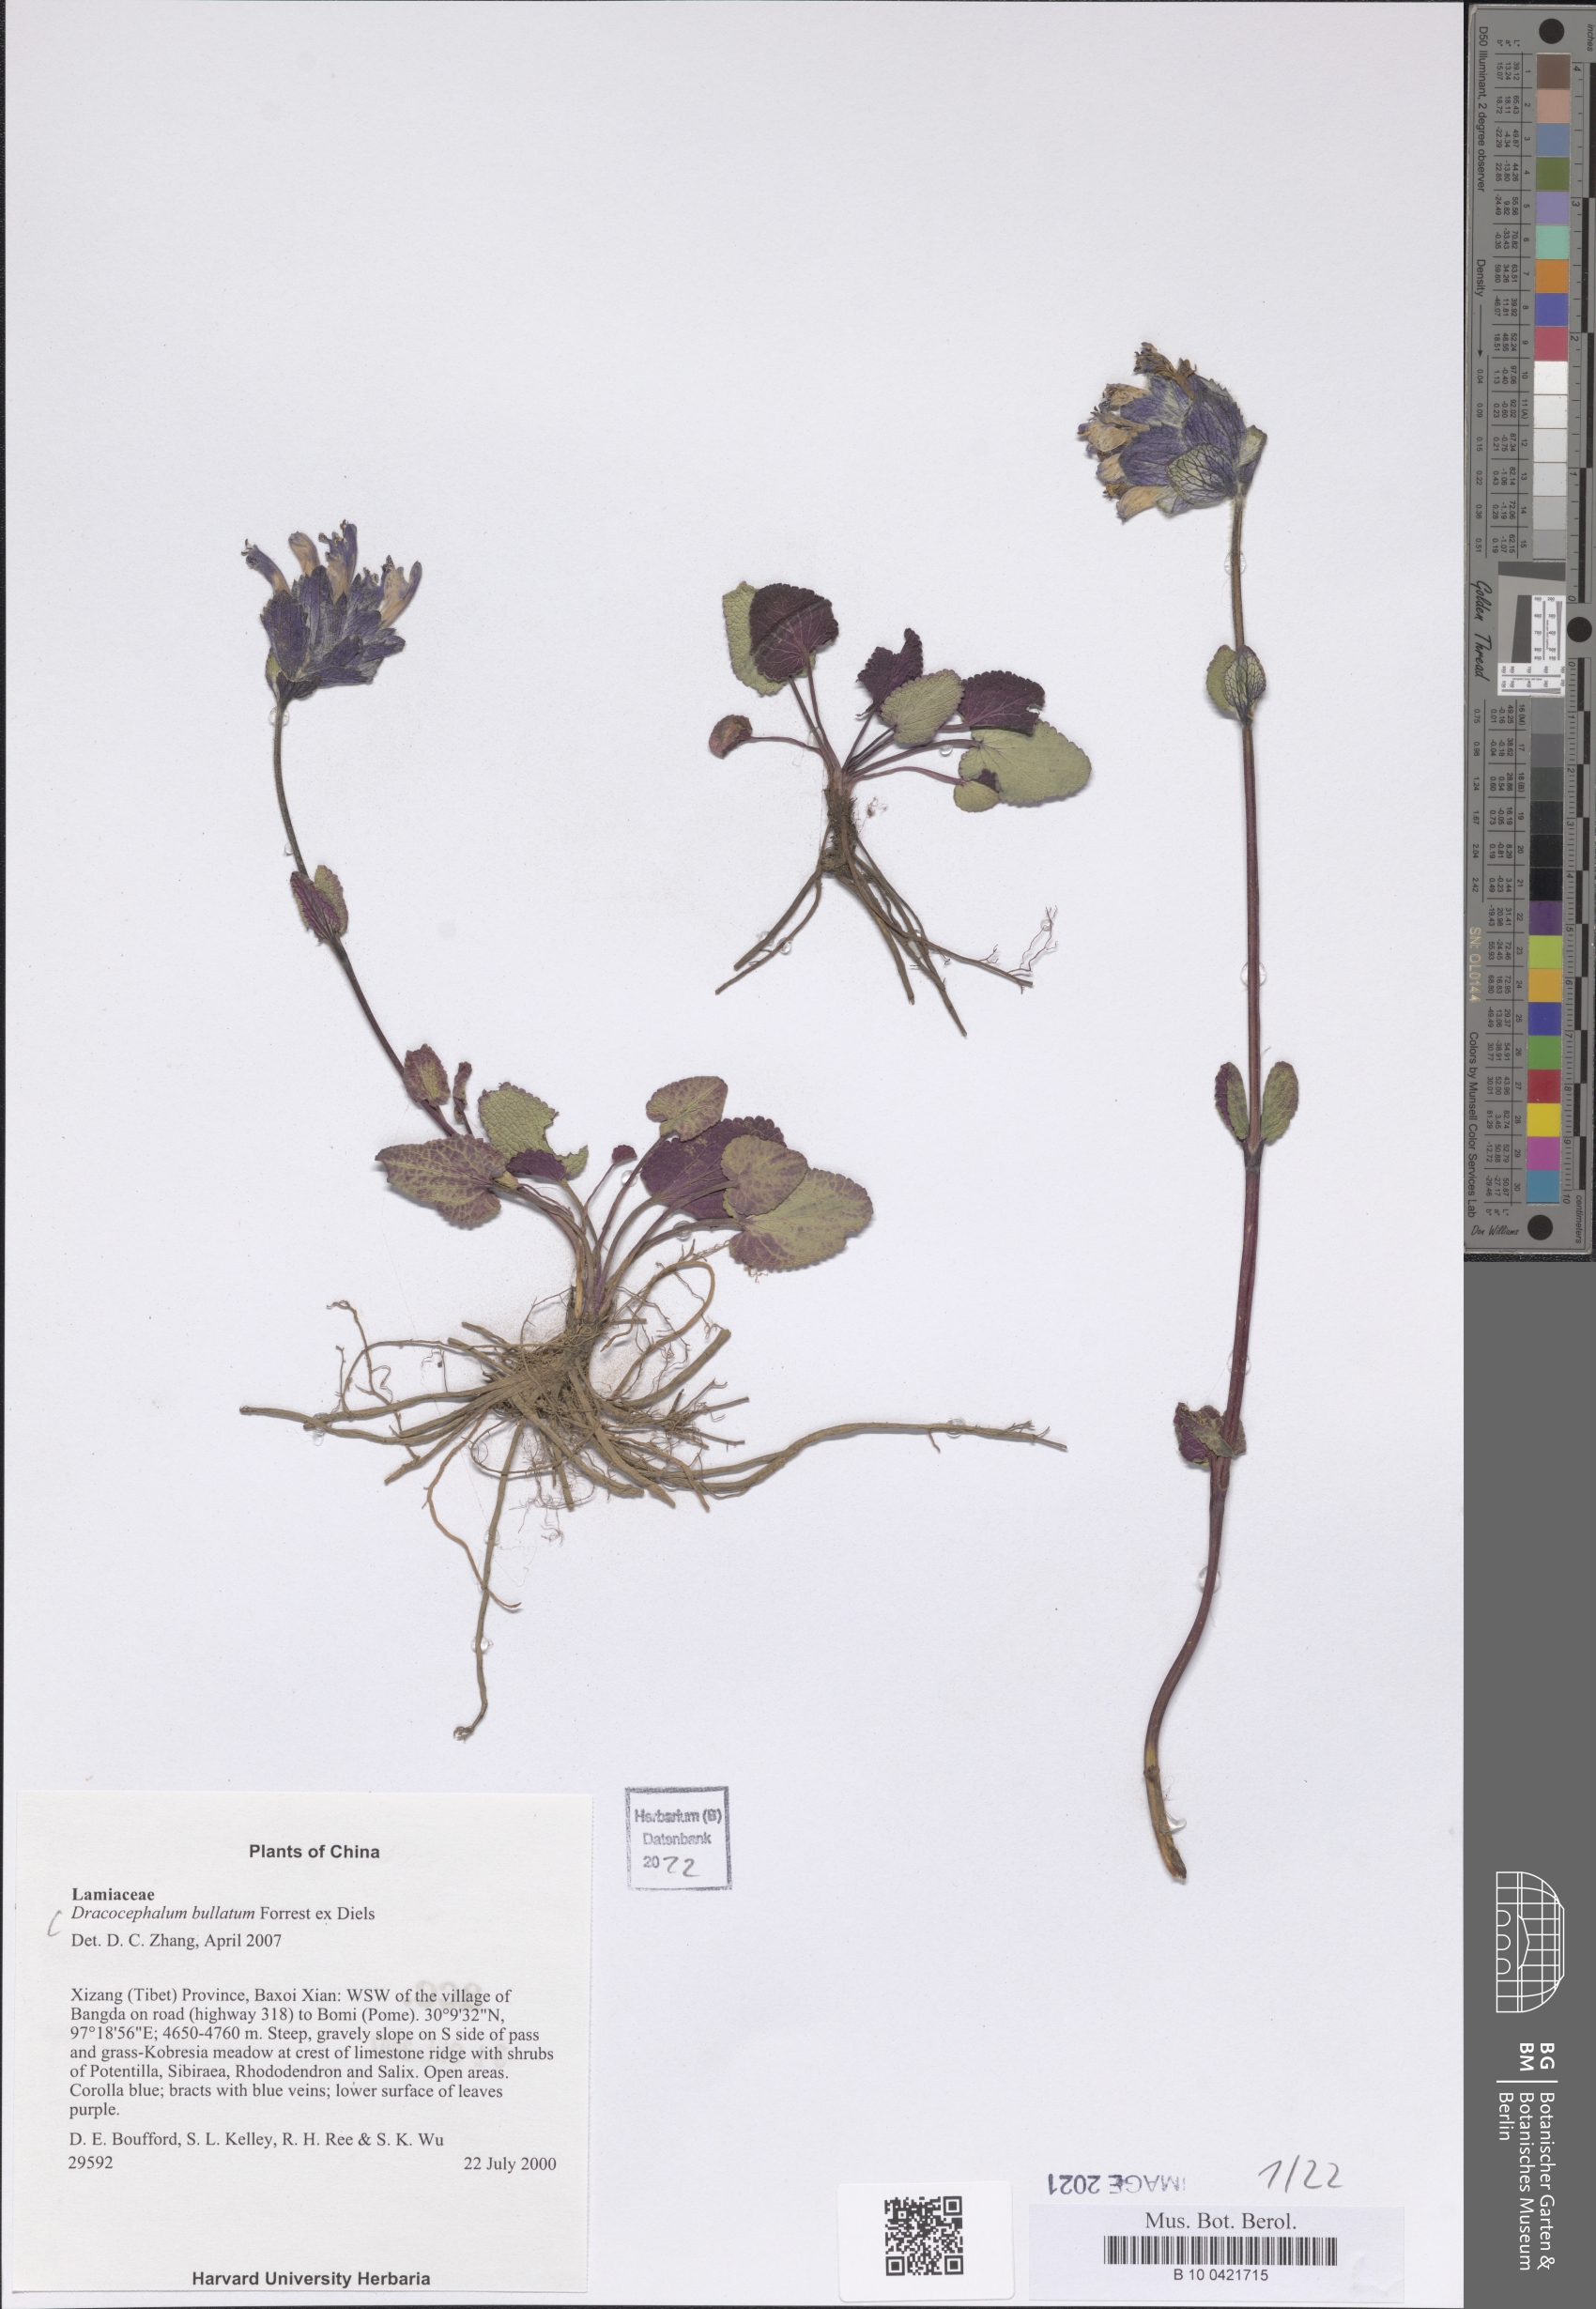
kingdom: Plantae
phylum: Tracheophyta
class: Magnoliopsida
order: Lamiales
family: Lamiaceae
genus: Dracocephalum
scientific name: Dracocephalum bullatum
